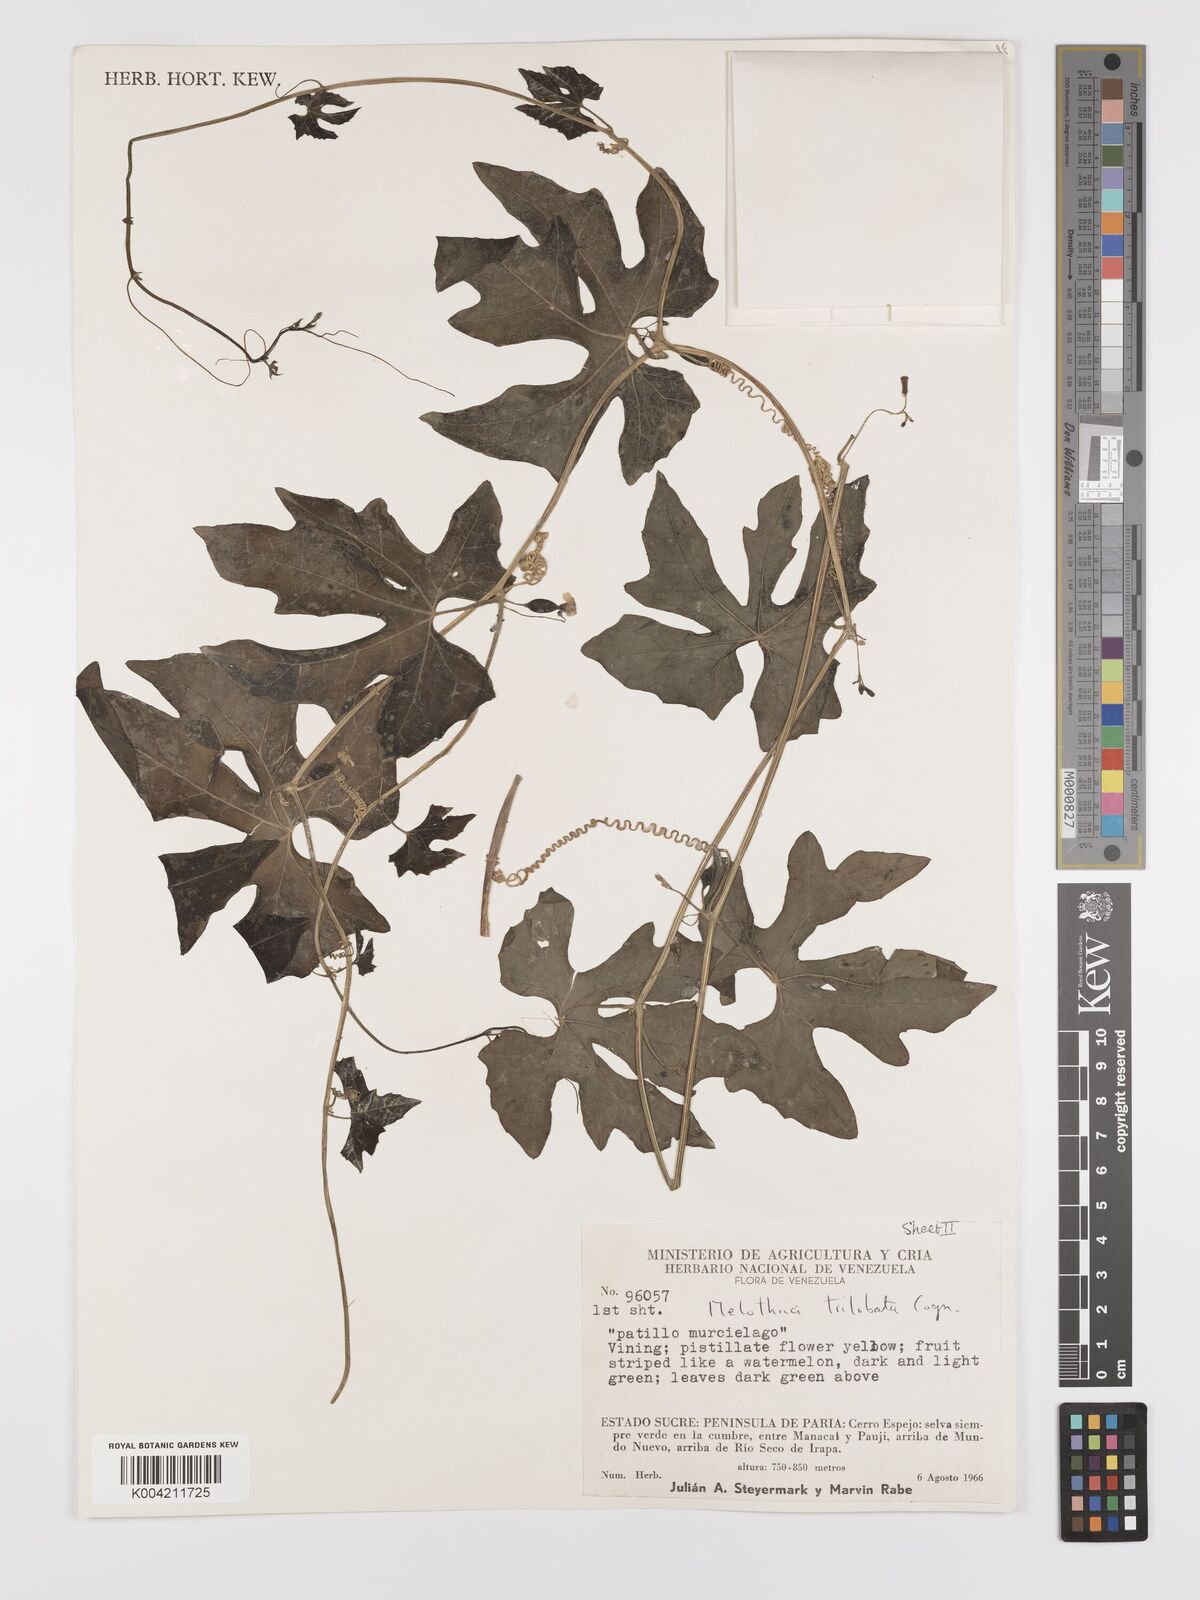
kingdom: Plantae
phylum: Tracheophyta
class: Magnoliopsida
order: Cucurbitales
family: Cucurbitaceae
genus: Melothria
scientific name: Melothria trilobata
